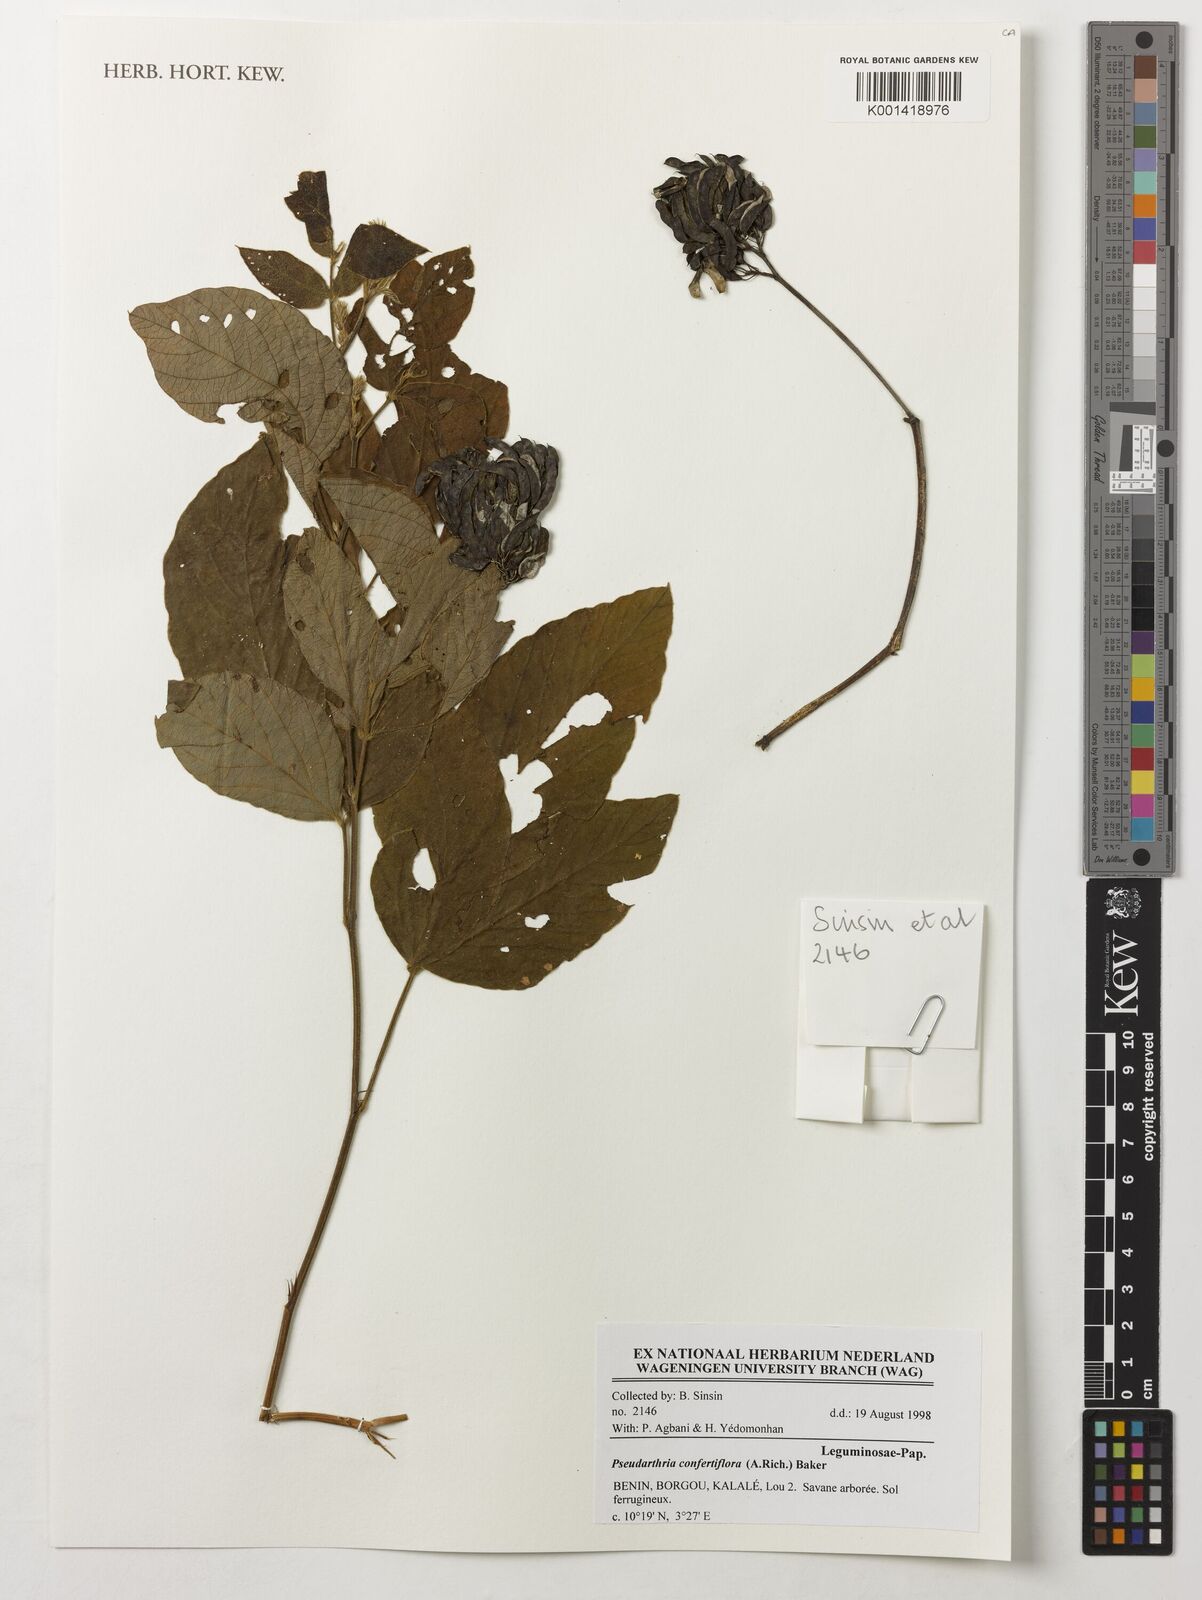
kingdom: Plantae
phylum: Tracheophyta
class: Magnoliopsida
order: Fabales
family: Fabaceae
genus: Pseudarthria
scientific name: Pseudarthria confertiflora
